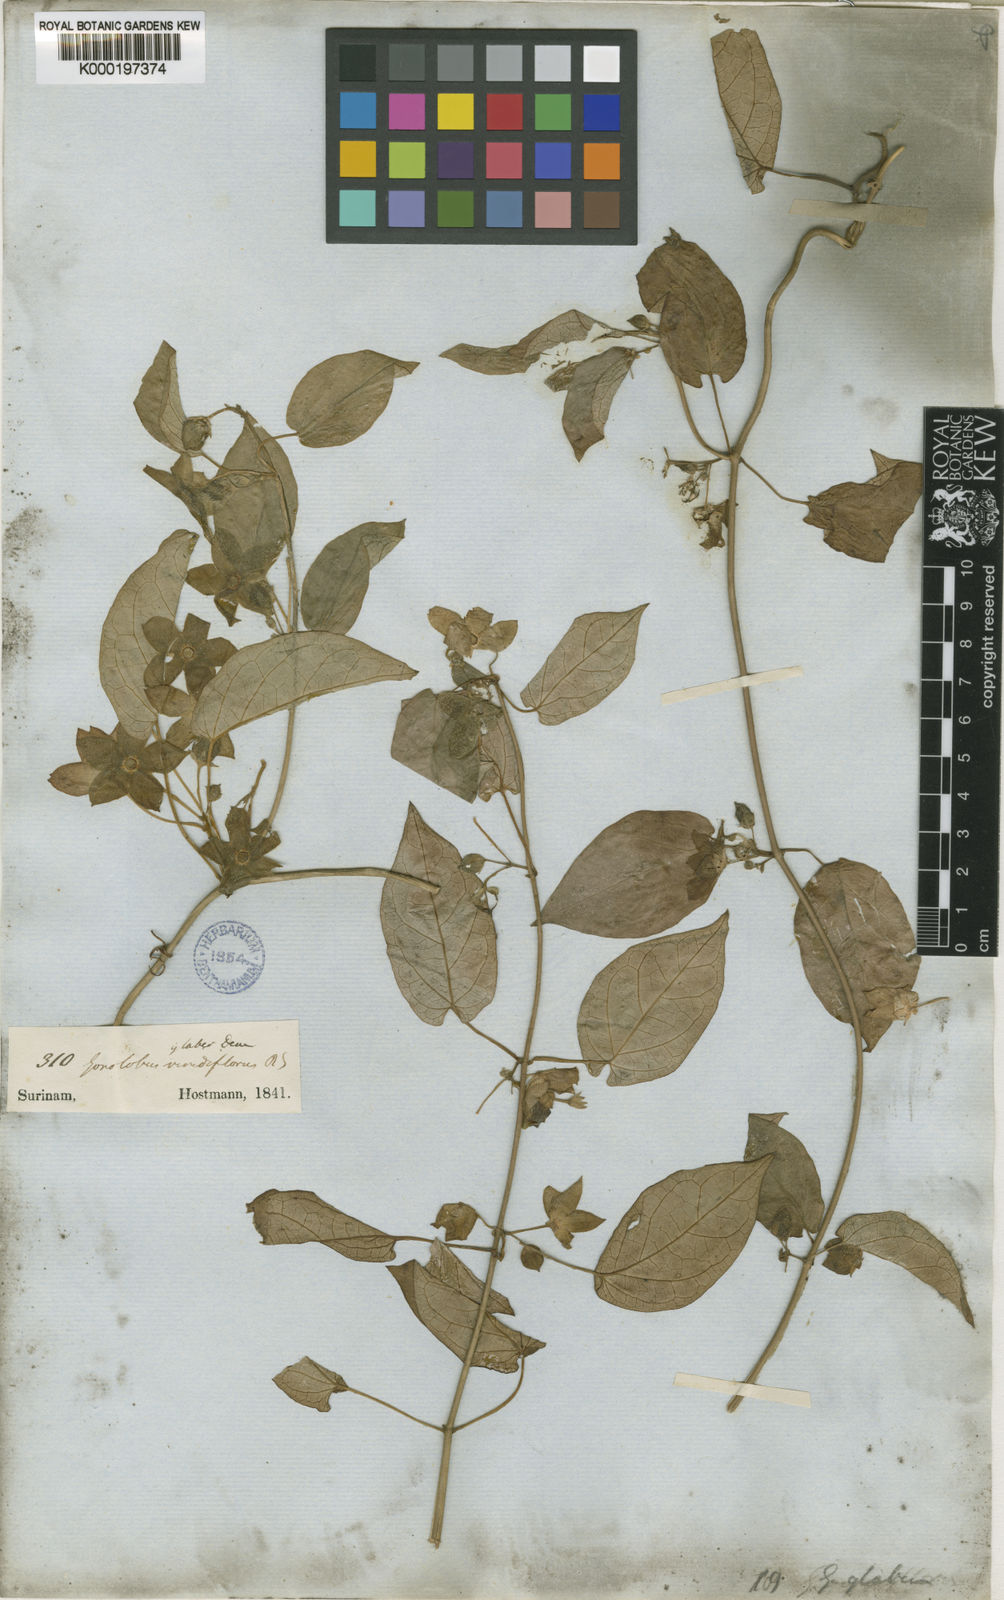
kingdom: Plantae
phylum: Tracheophyta
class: Magnoliopsida
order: Gentianales
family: Apocynaceae
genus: Chloropetalum
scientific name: Chloropetalum denticulatum
